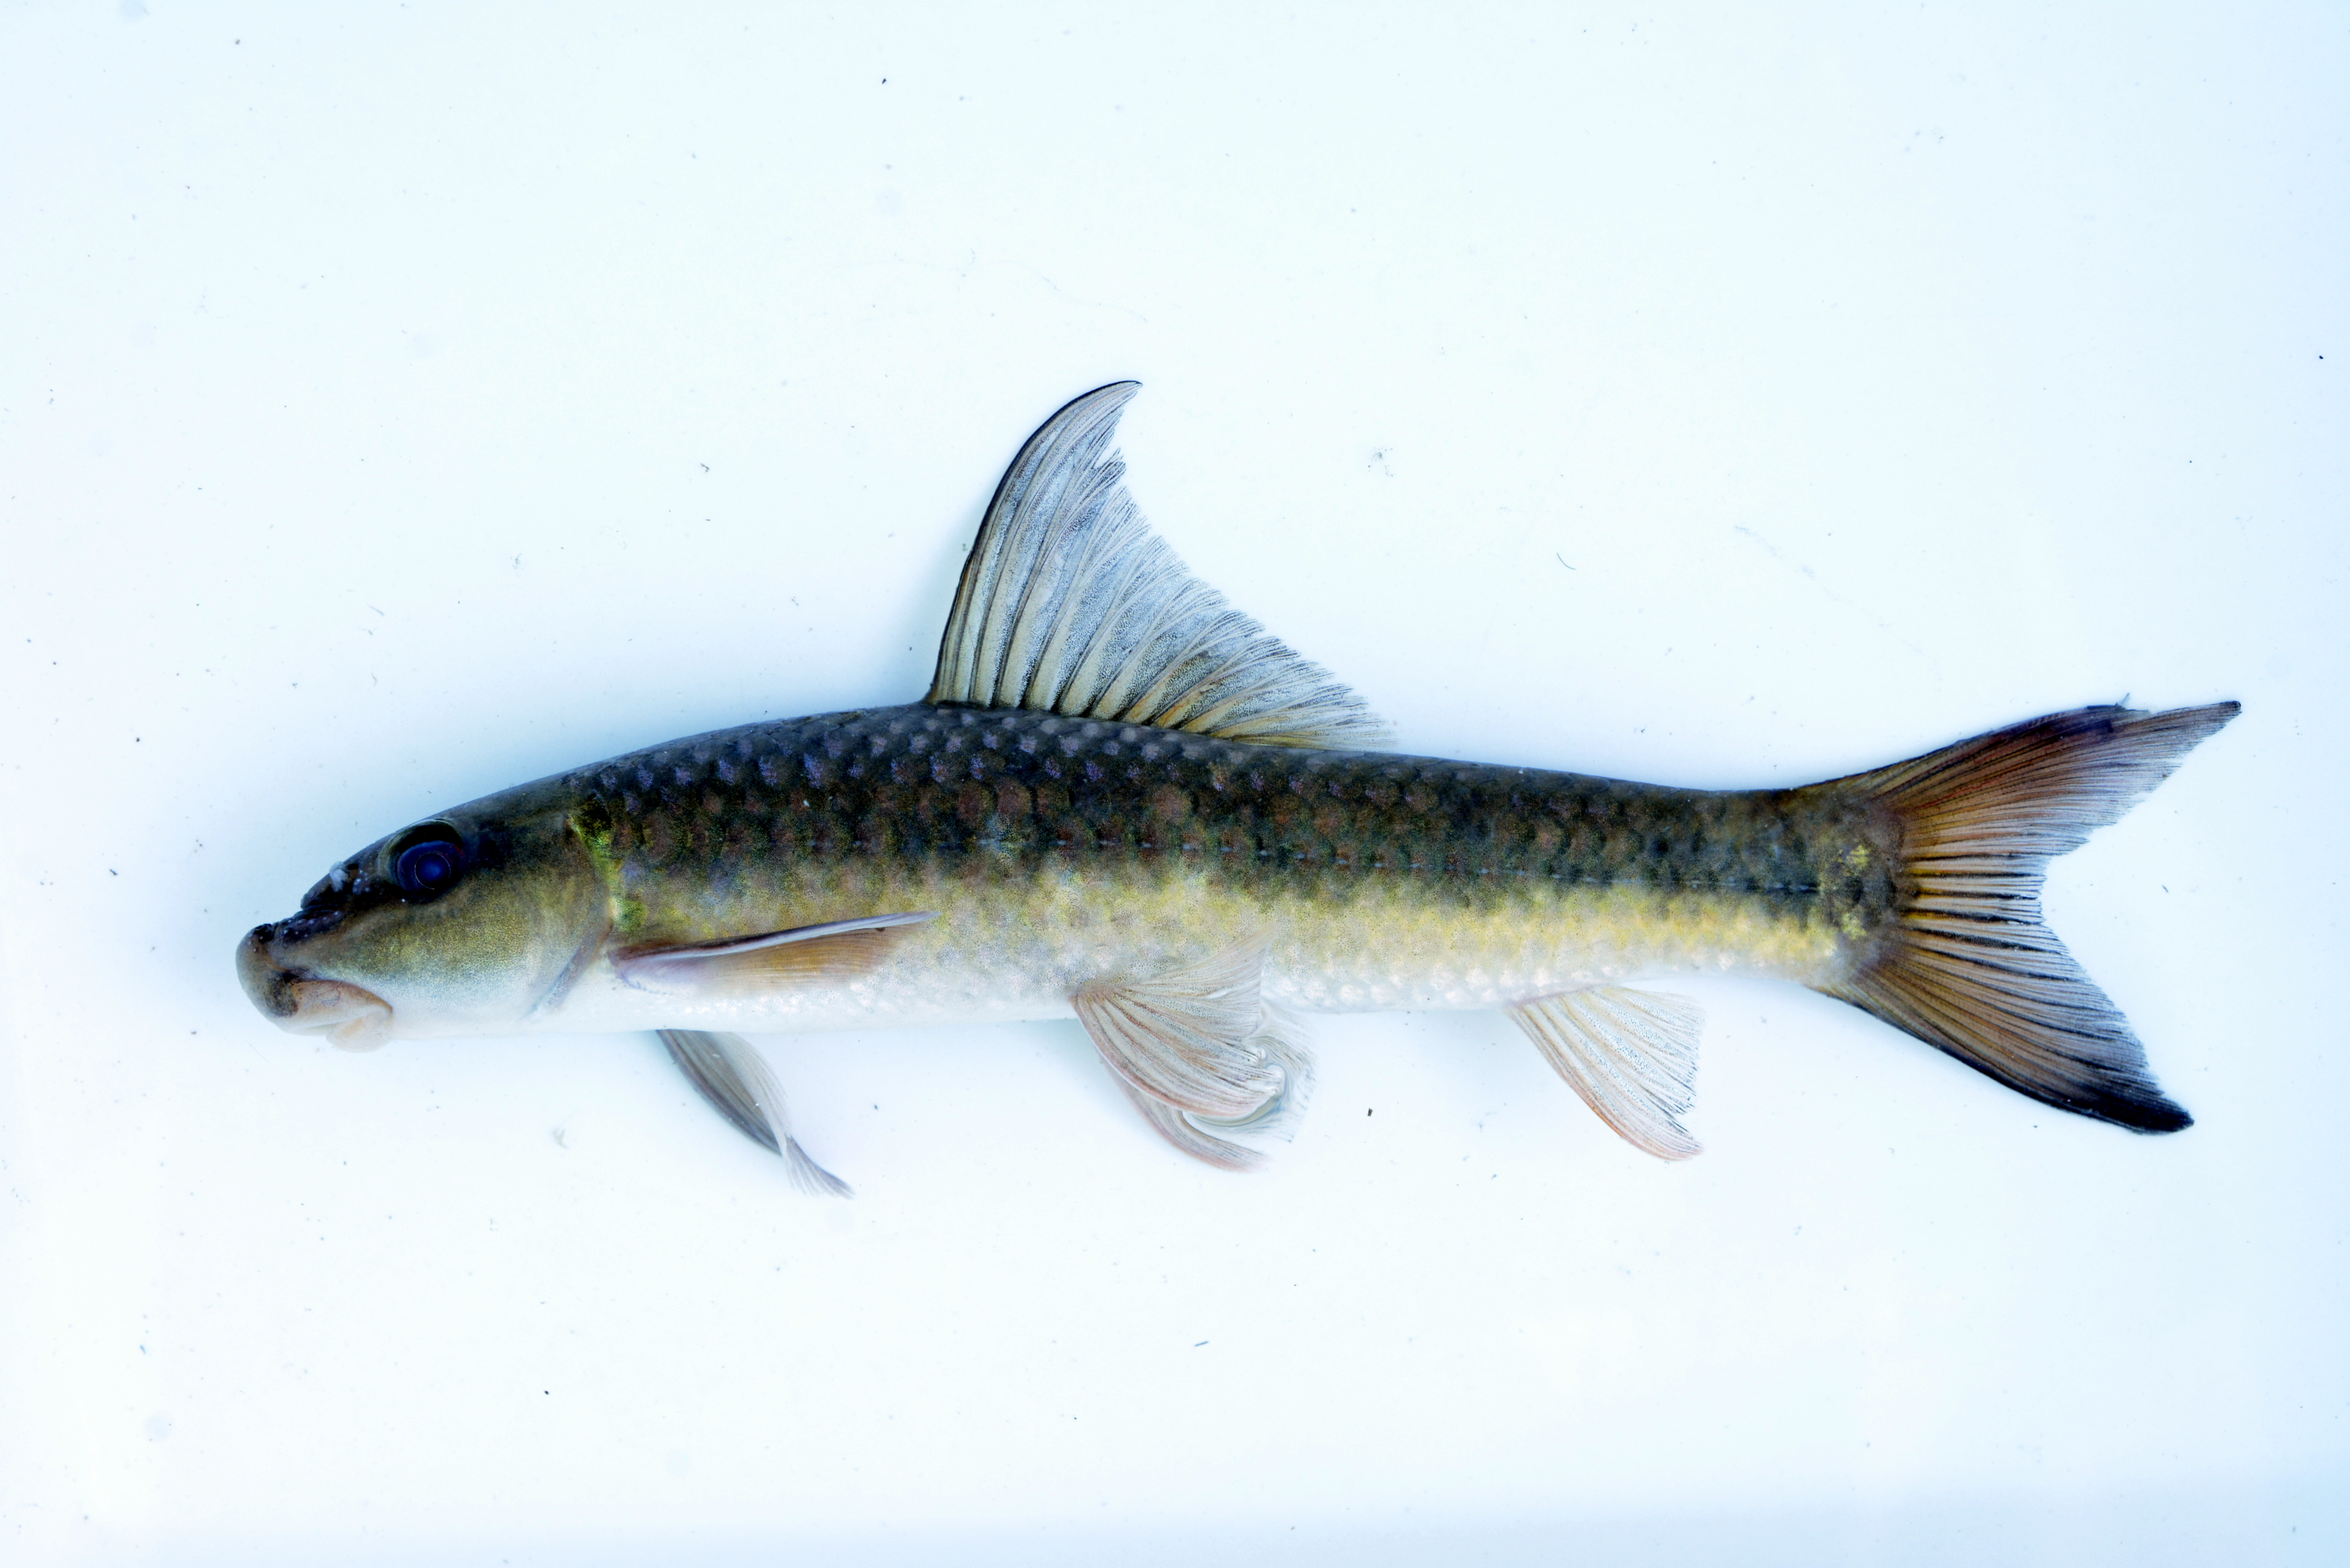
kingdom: Animalia
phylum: Chordata
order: Cypriniformes
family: Cyprinidae
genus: Labeo
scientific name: Labeo cylindricus
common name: Redeye labeo
